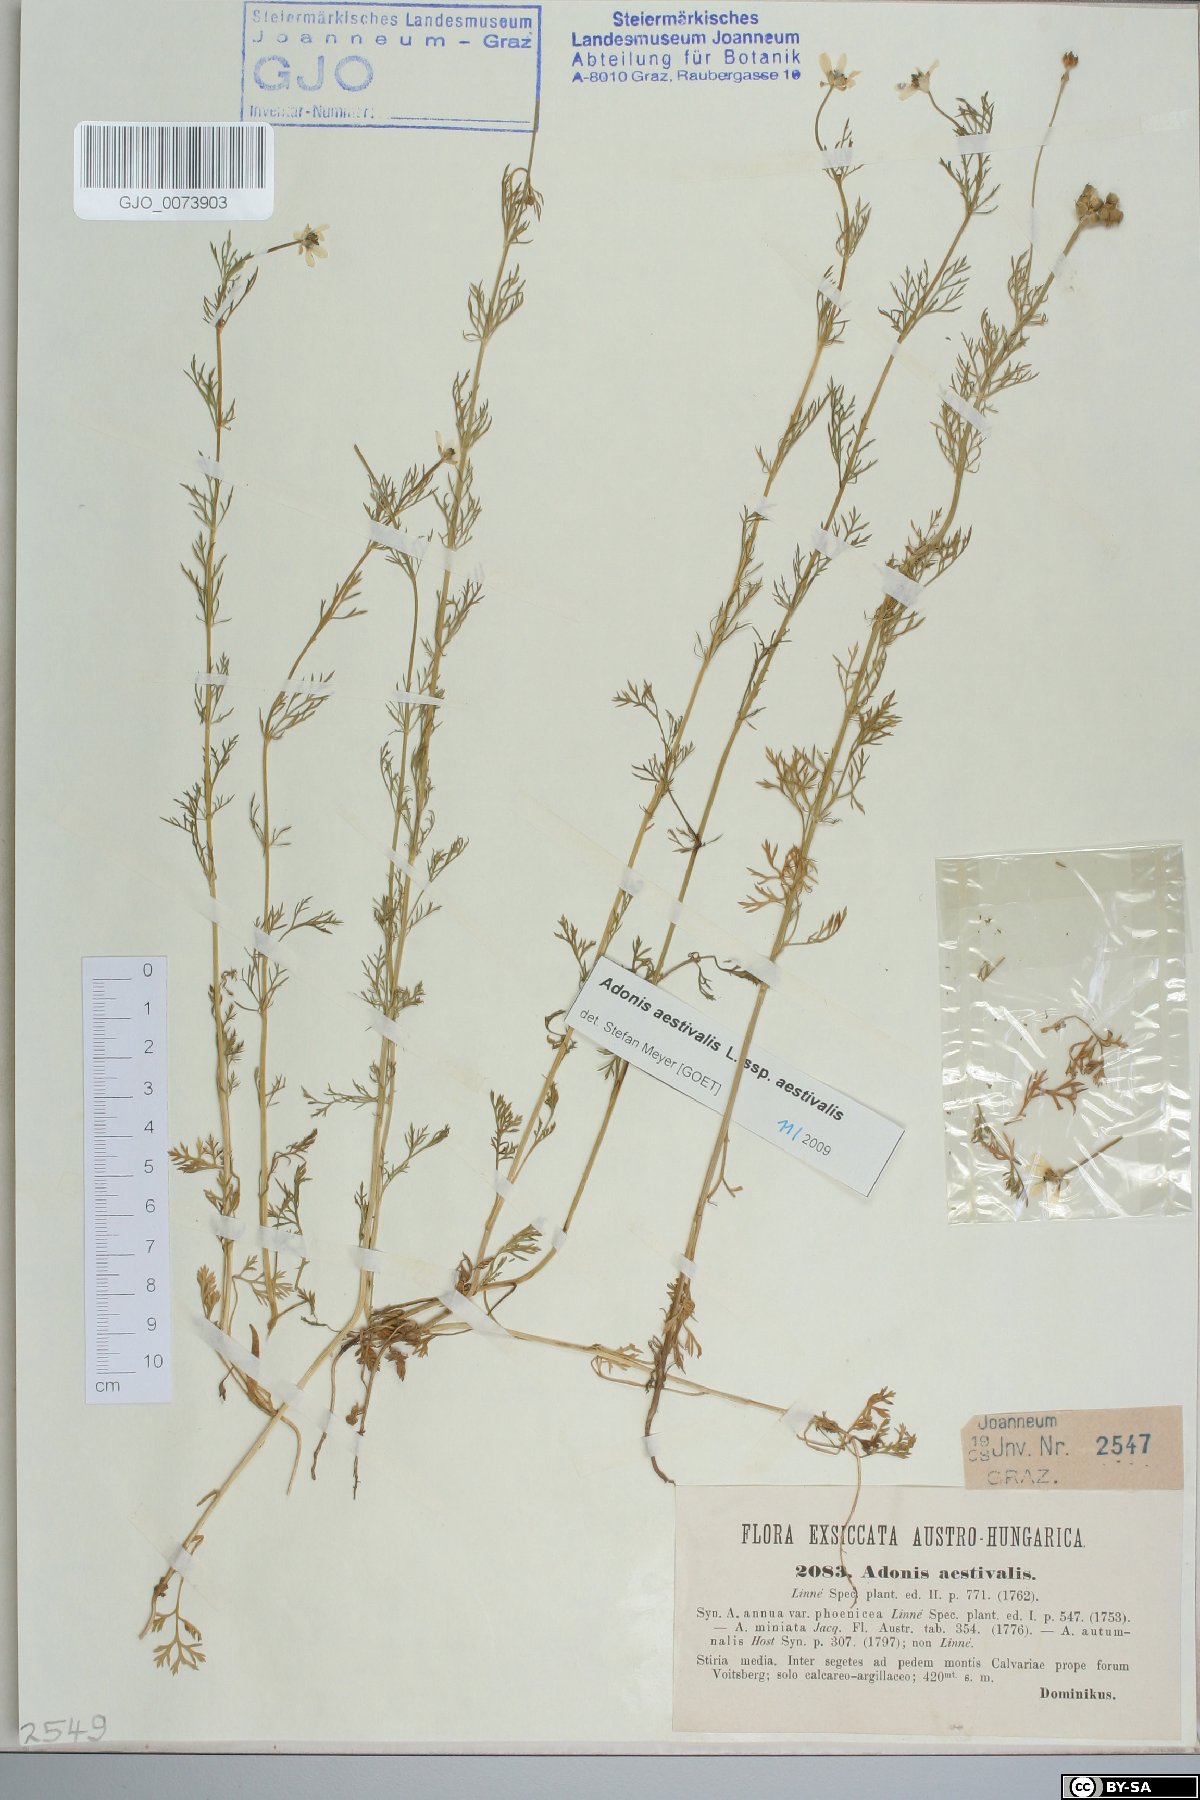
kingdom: Plantae
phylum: Tracheophyta
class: Magnoliopsida
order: Ranunculales
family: Ranunculaceae
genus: Adonis
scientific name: Adonis aestivalis
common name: Summer pheasant's-eye
